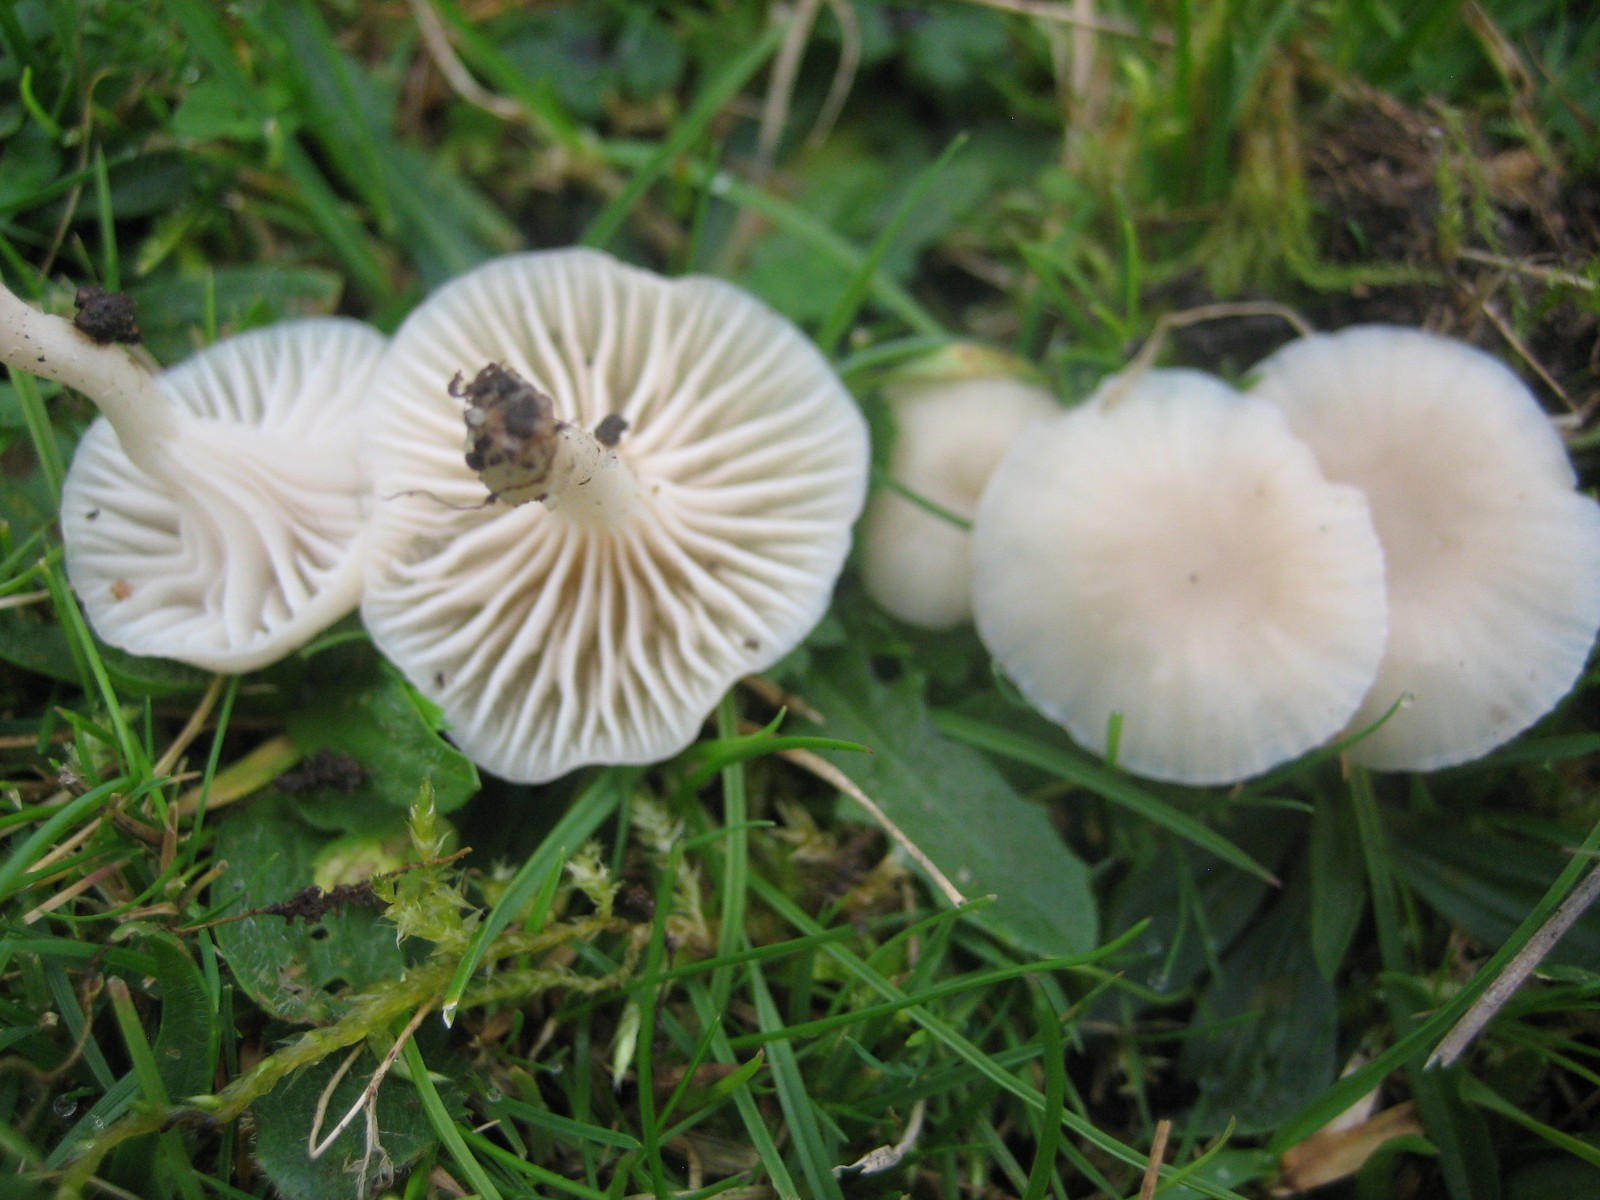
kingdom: Fungi
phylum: Basidiomycota
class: Agaricomycetes
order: Agaricales
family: Hygrophoraceae
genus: Cuphophyllus
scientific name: Cuphophyllus virgineus
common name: snehvid vokshat
